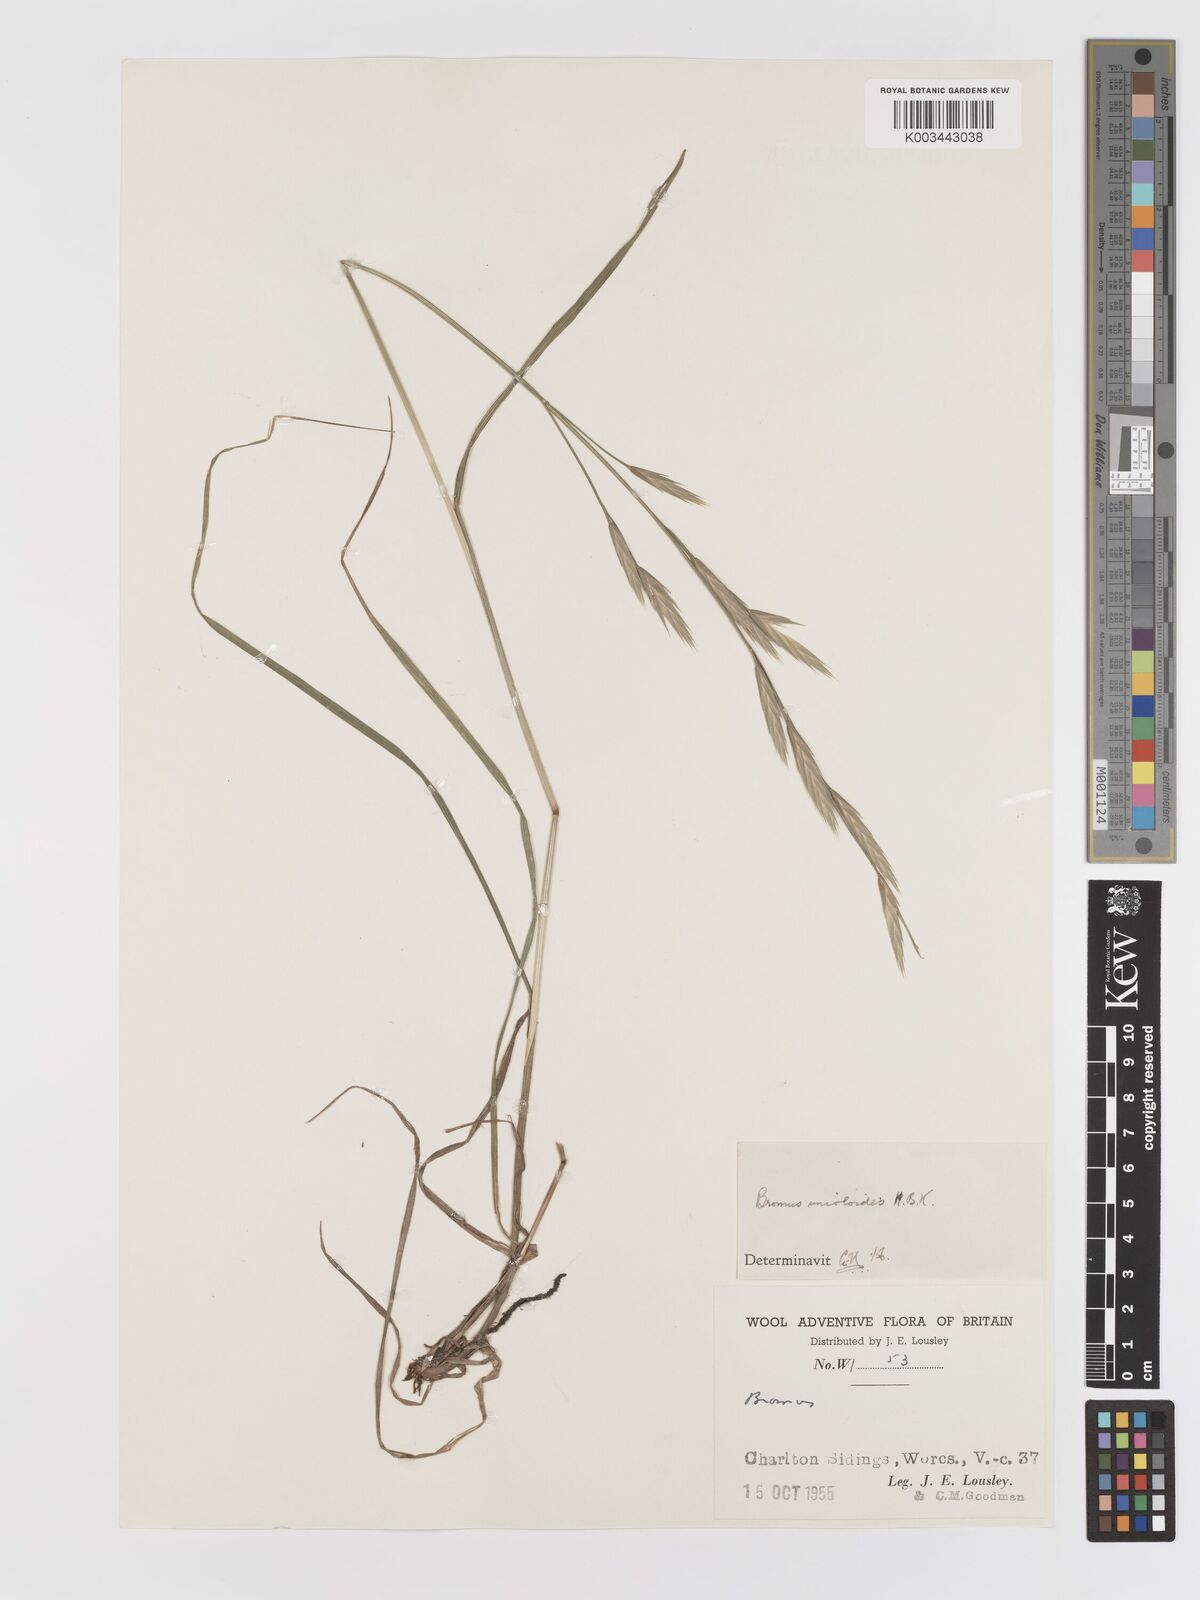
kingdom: Plantae
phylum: Tracheophyta
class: Liliopsida
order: Poales
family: Poaceae
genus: Bromus
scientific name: Bromus catharticus
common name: Rescuegrass
